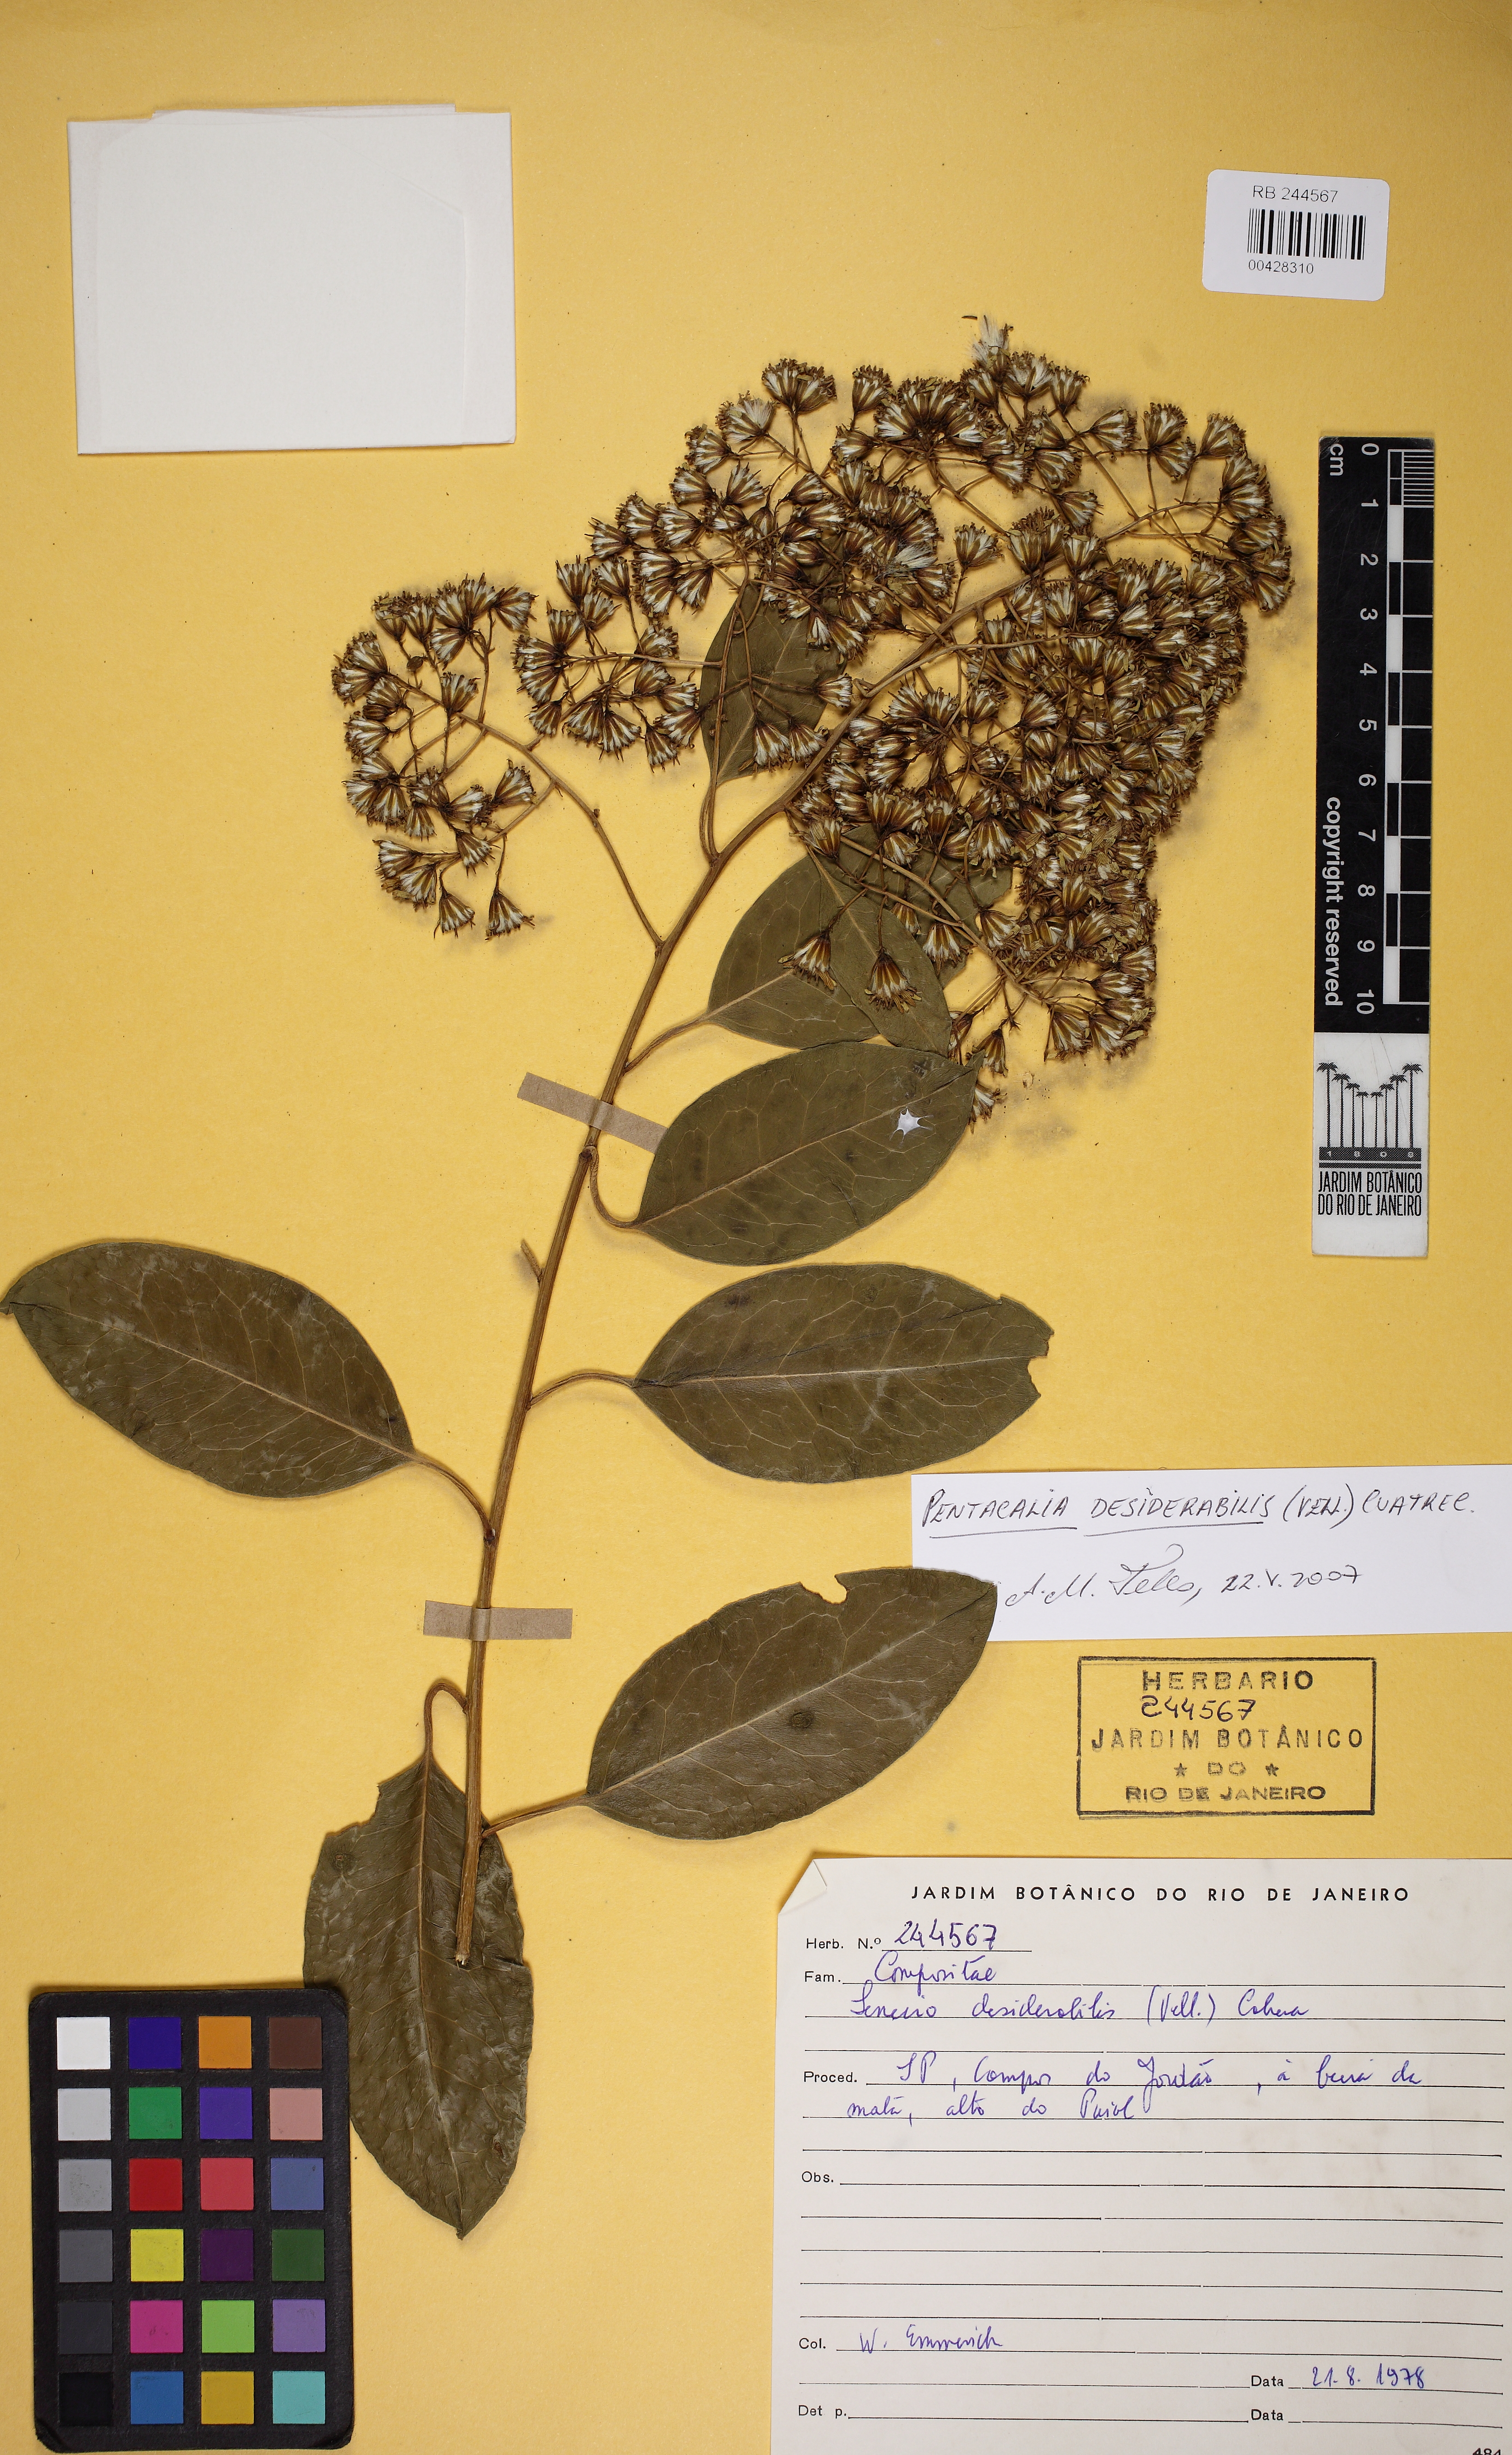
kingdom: Plantae
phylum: Tracheophyta
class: Magnoliopsida
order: Asterales
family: Asteraceae
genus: Pentacalia
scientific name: Pentacalia desiderabilis
